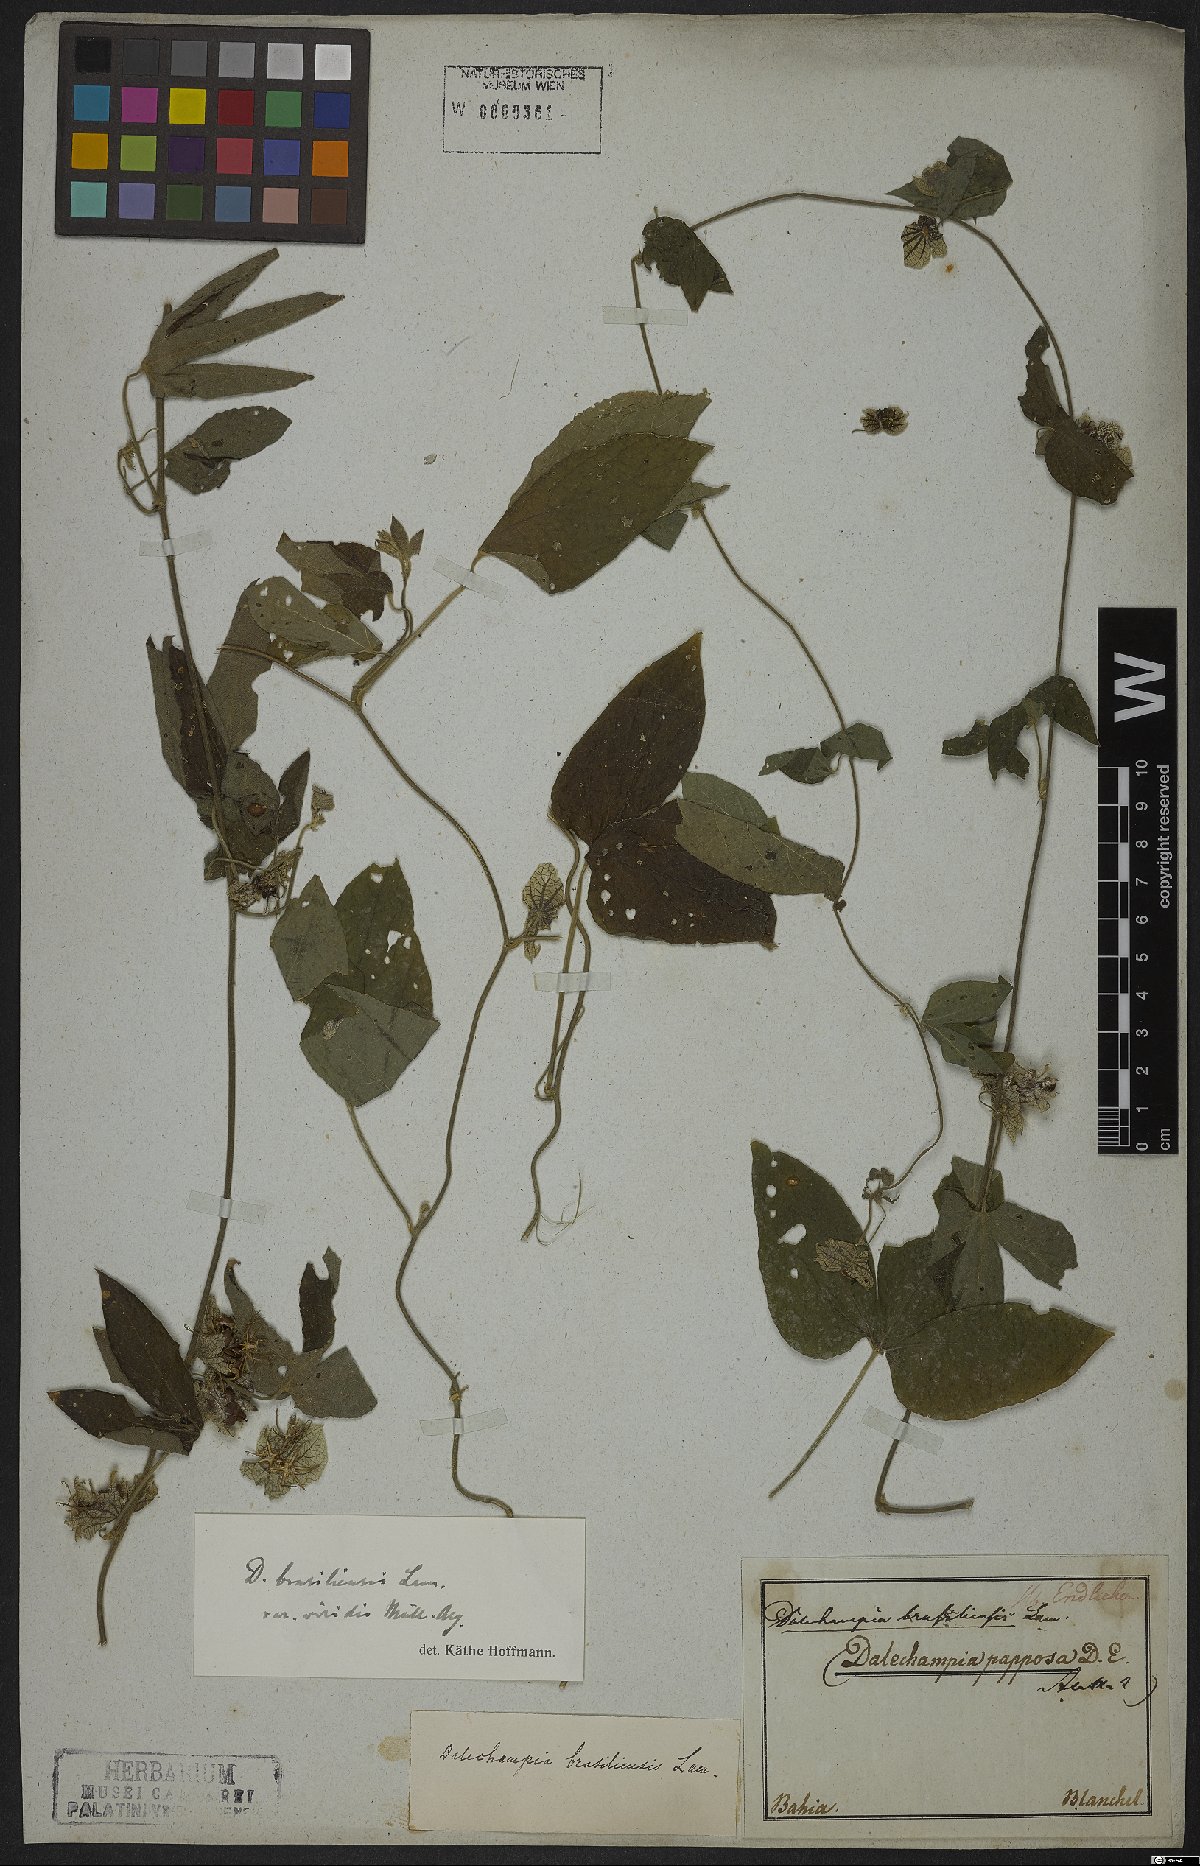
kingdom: Plantae
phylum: Tracheophyta
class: Magnoliopsida
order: Malpighiales
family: Euphorbiaceae
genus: Dalechampia
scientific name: Dalechampia brasiliensis
